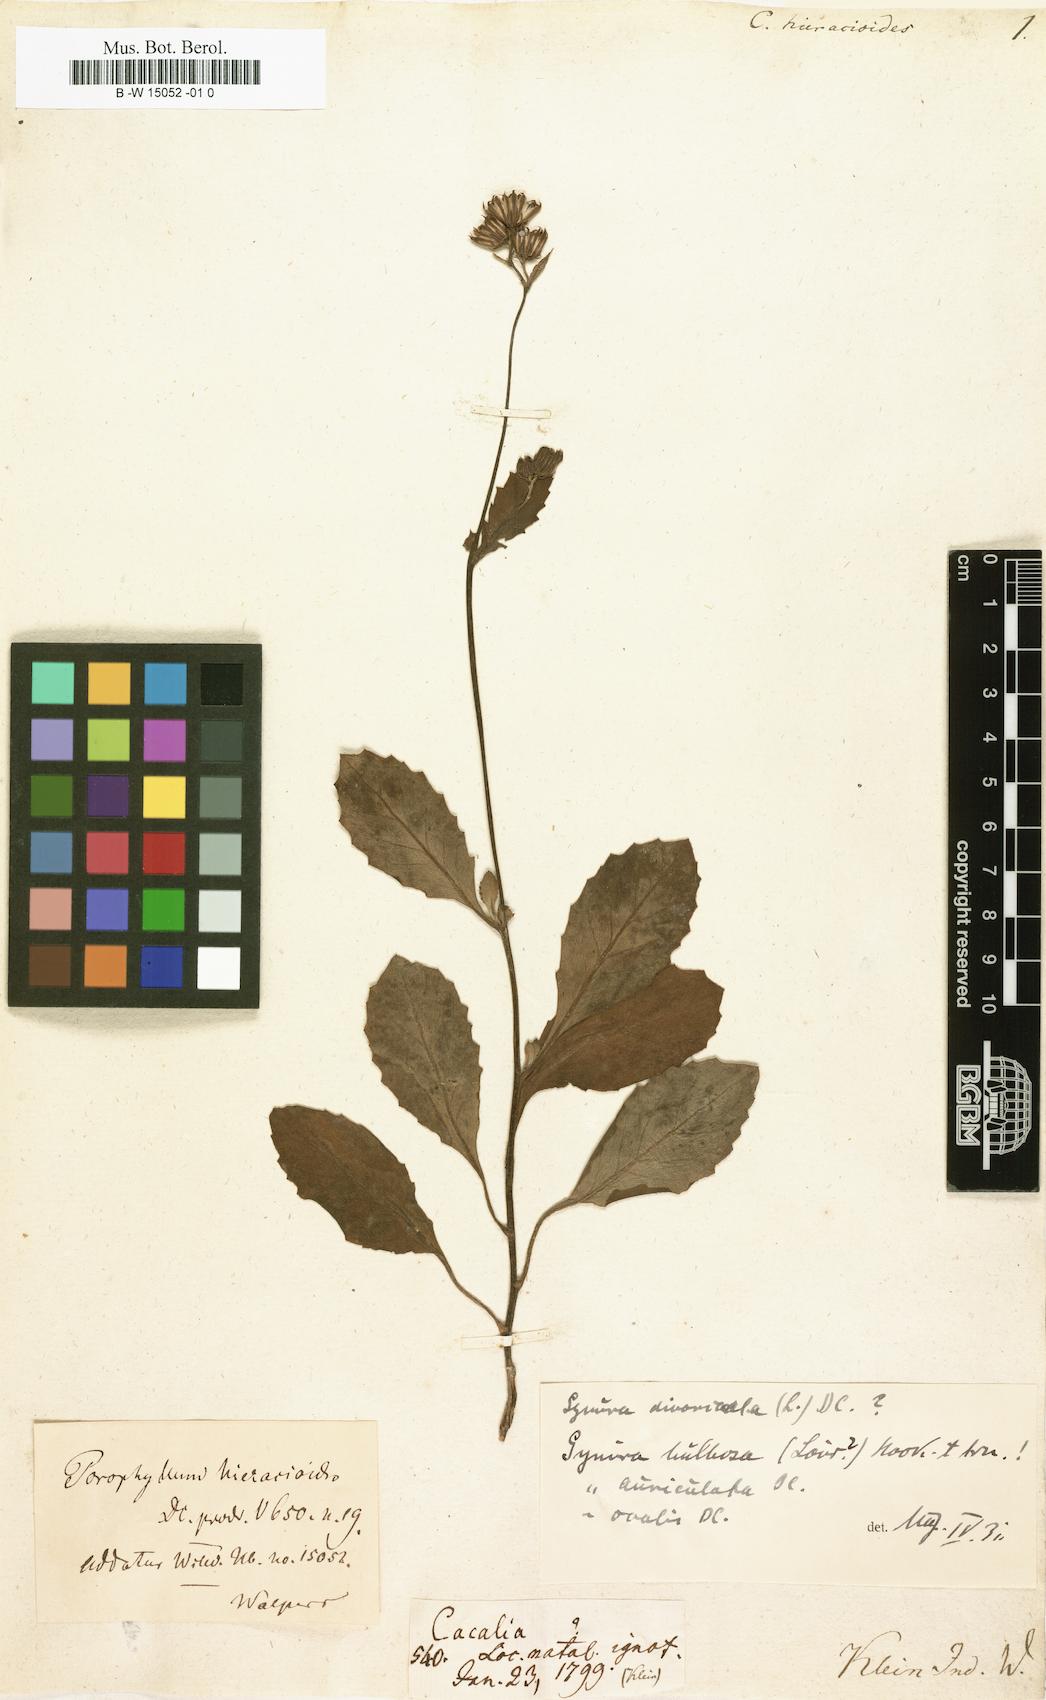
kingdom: Plantae
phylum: Tracheophyta
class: Magnoliopsida
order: Asterales
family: Asteraceae
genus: Gynura
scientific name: Gynura divaricata
